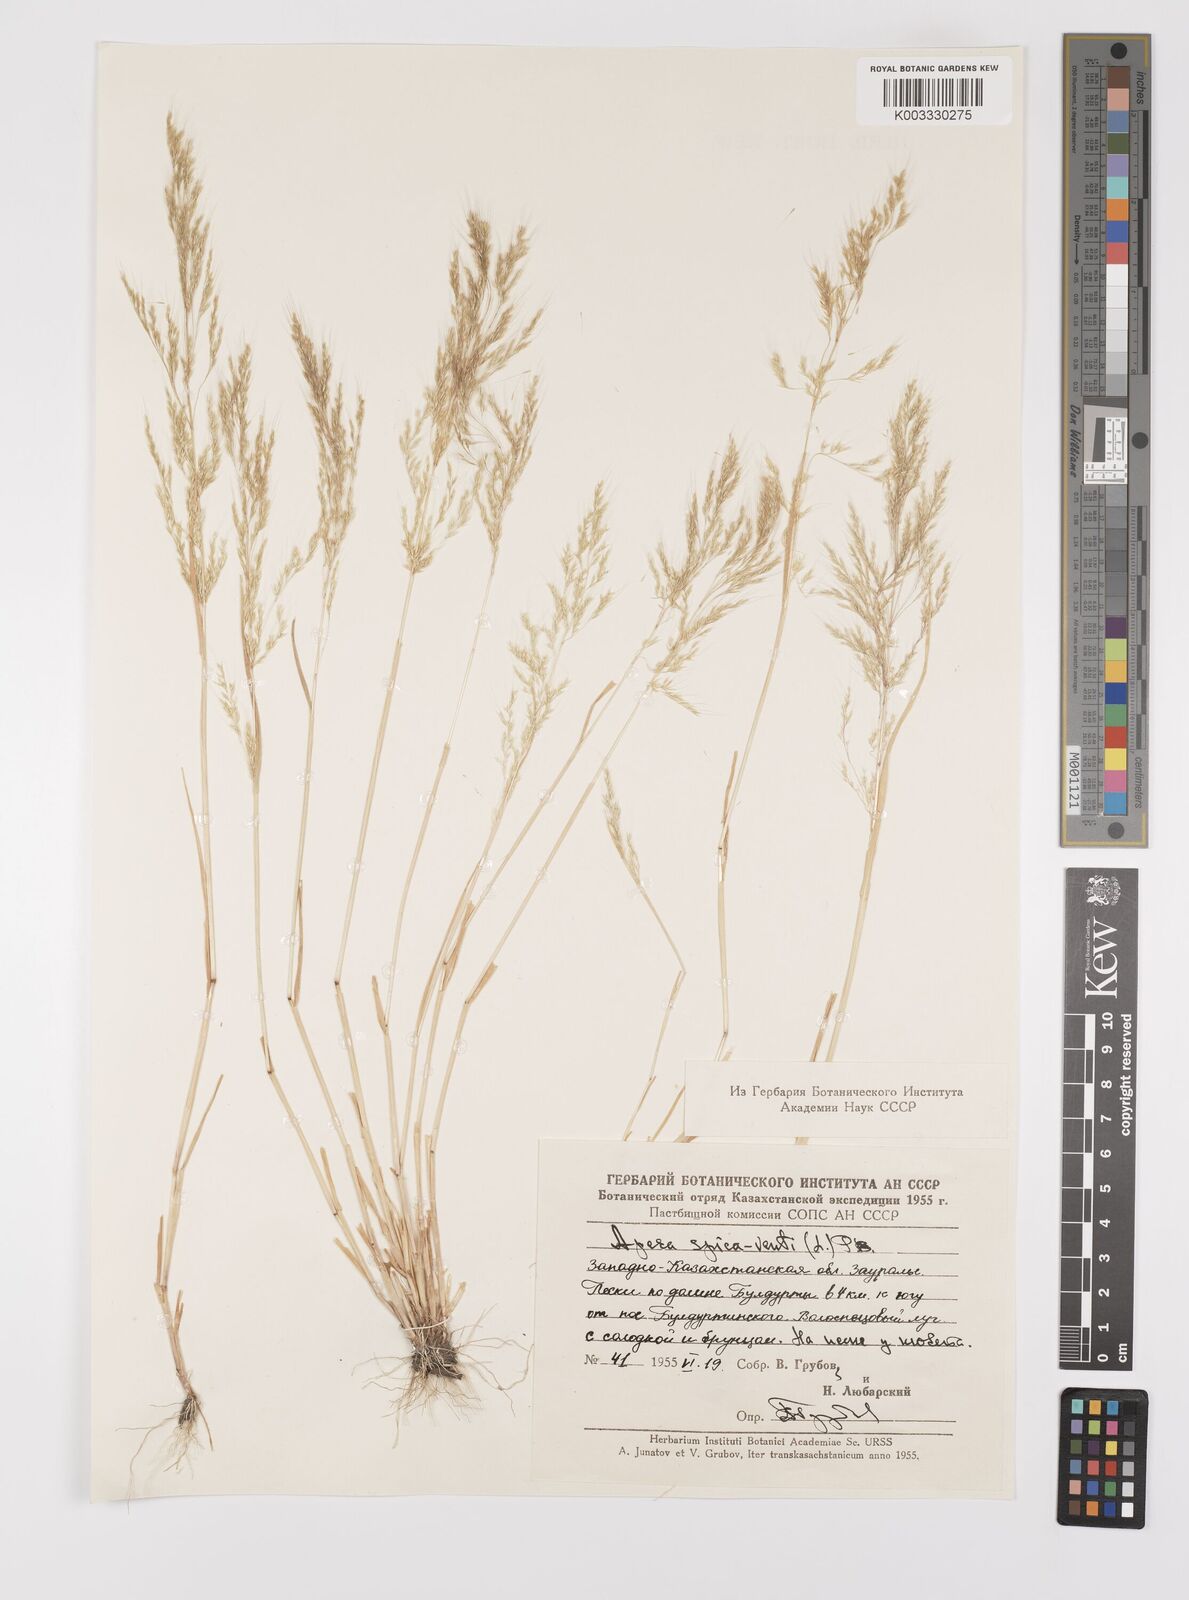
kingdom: Plantae
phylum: Tracheophyta
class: Liliopsida
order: Poales
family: Poaceae
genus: Apera
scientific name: Apera spica-venti
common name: Loose silky-bent
